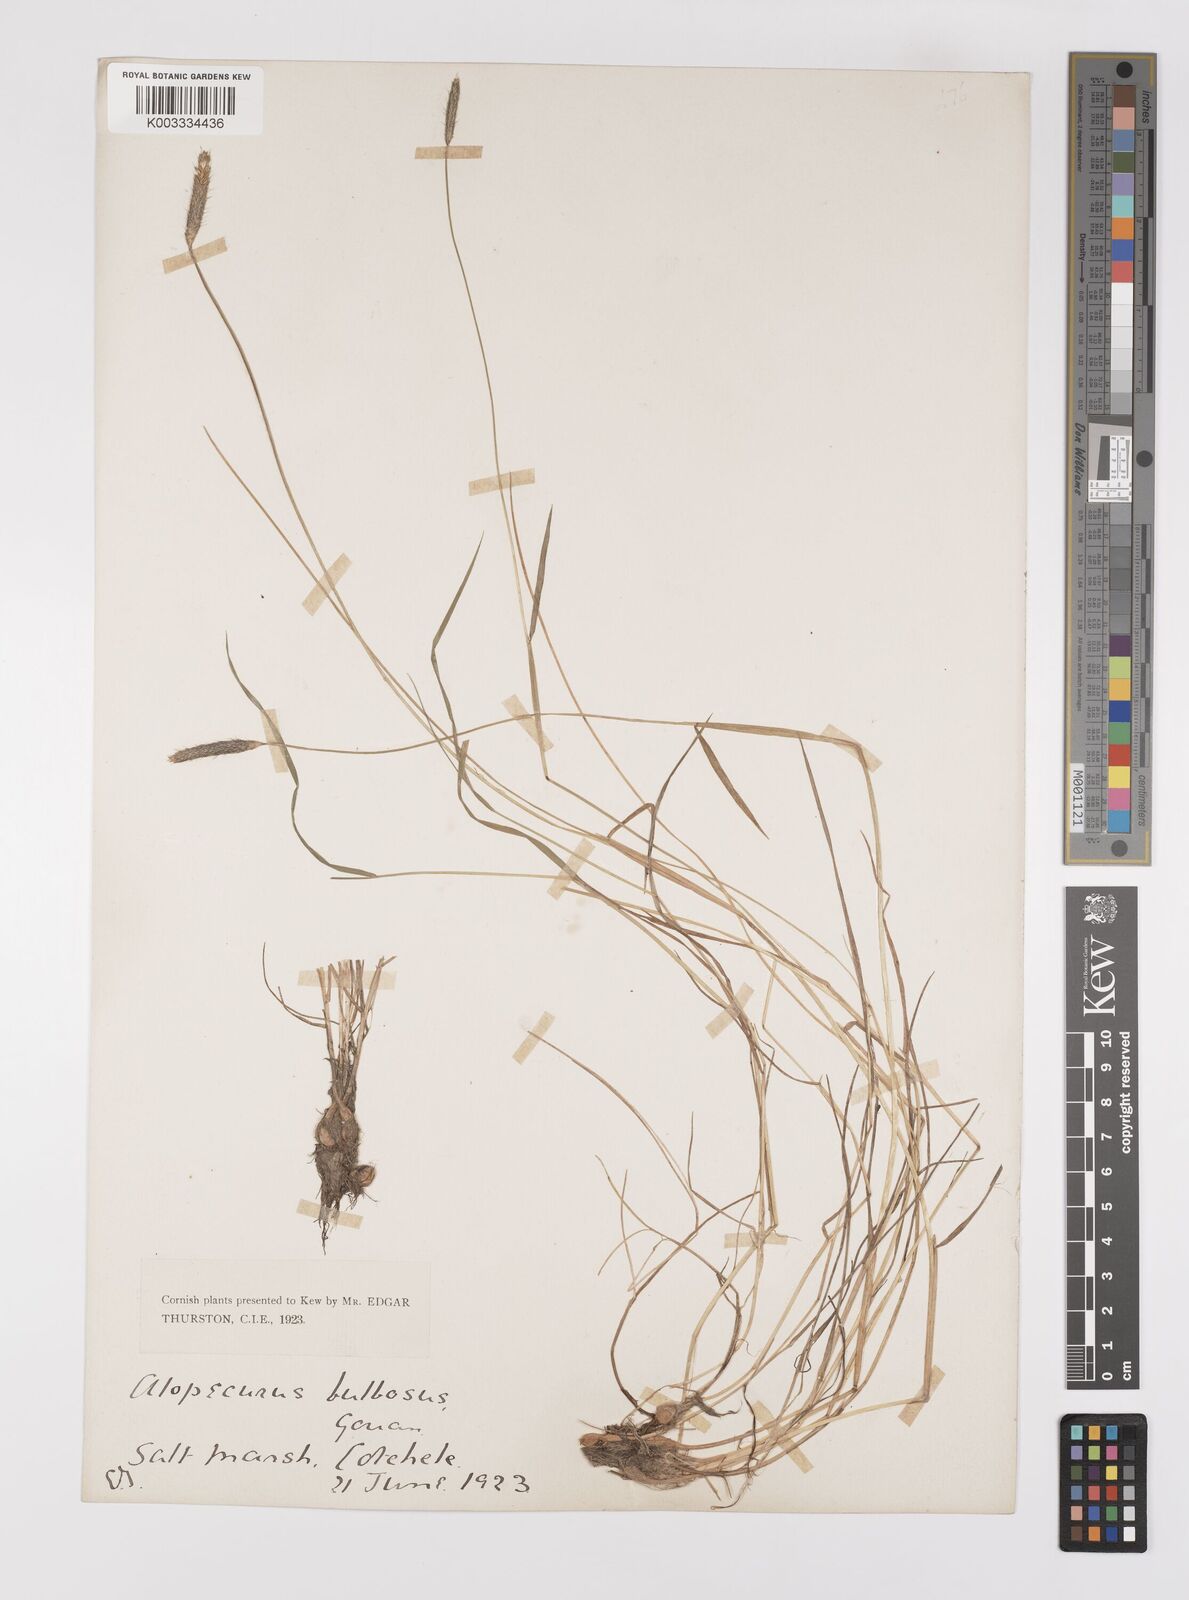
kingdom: Plantae
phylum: Tracheophyta
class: Liliopsida
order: Poales
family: Poaceae
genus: Alopecurus
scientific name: Alopecurus bulbosus
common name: Bulbous foxtail
